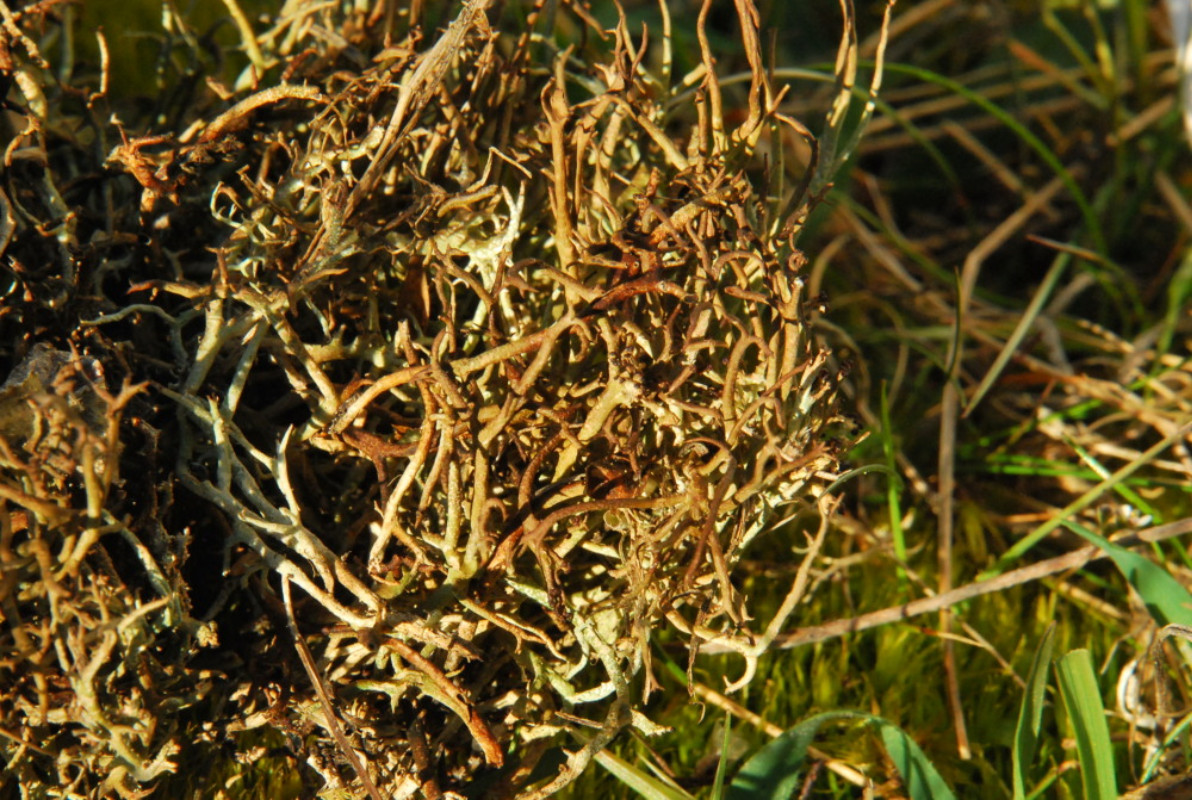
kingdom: Fungi
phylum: Ascomycota
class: Lecanoromycetes
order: Lecanorales
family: Cladoniaceae
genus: Cladonia
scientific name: Cladonia furcata
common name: kløftet bægerlav
